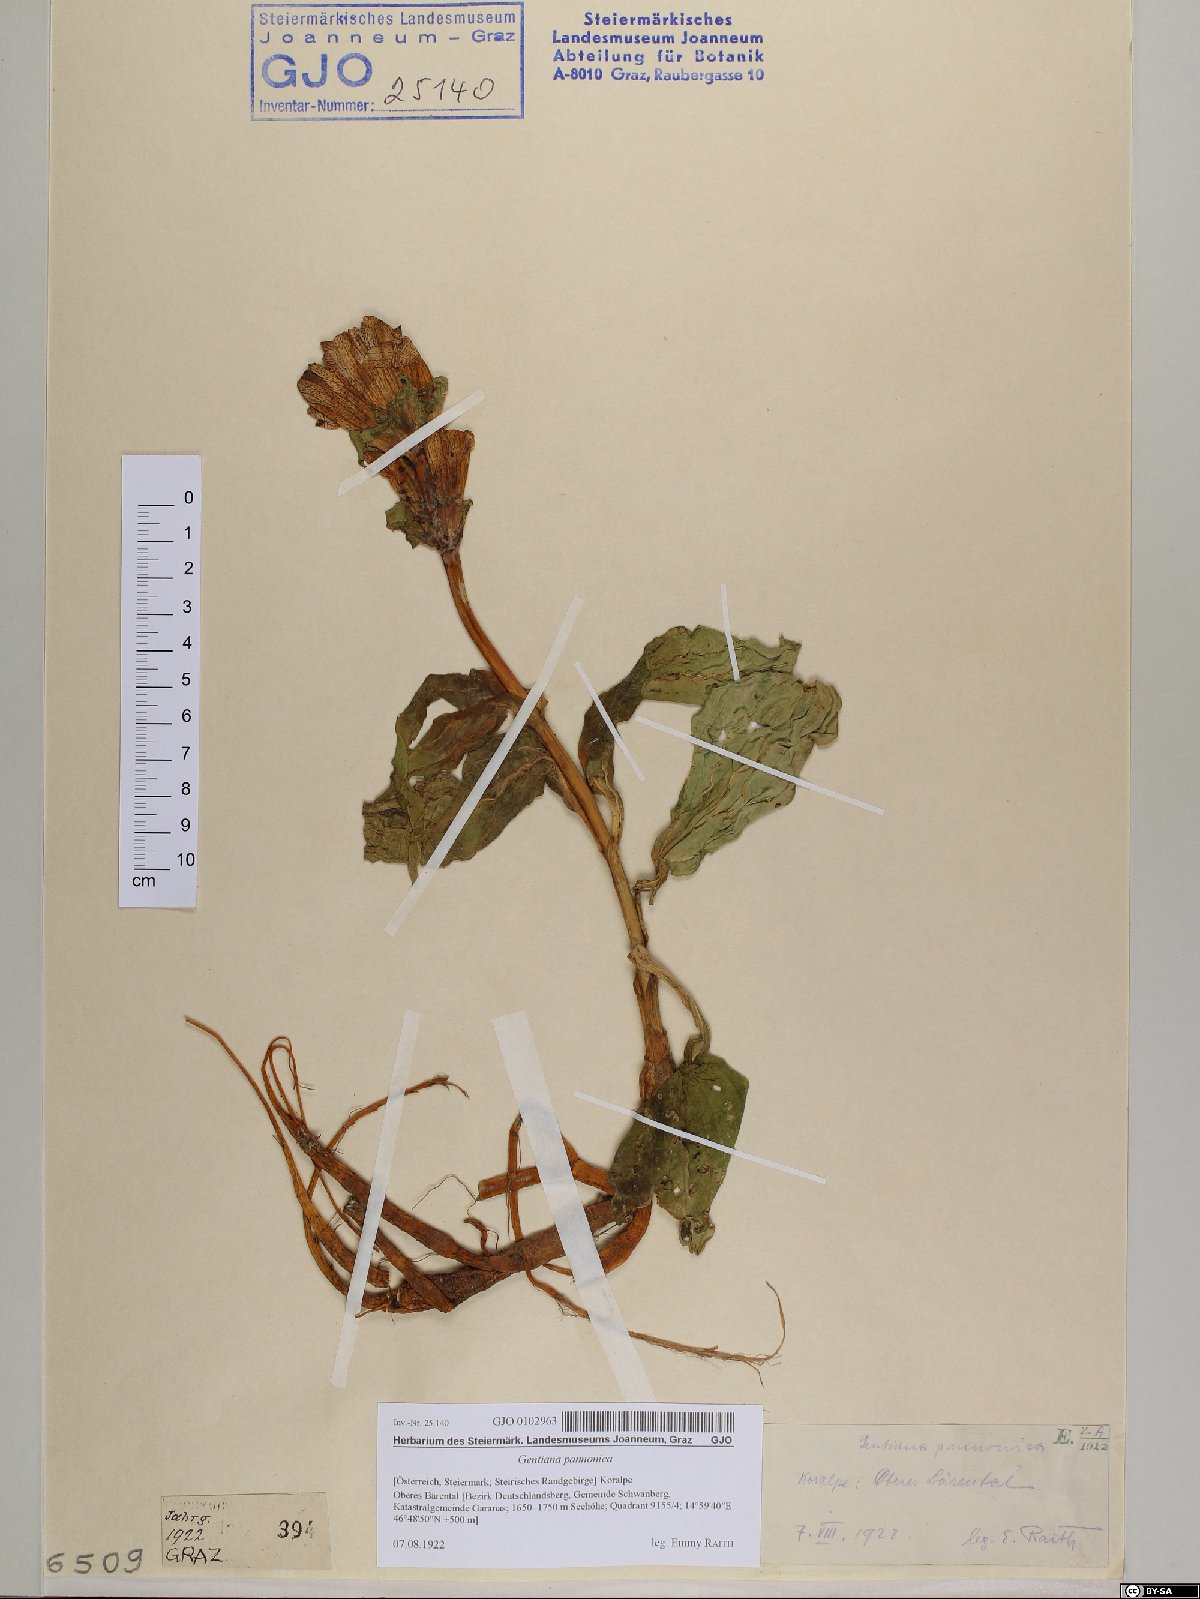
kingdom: Plantae
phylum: Tracheophyta
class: Magnoliopsida
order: Gentianales
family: Gentianaceae
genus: Gentiana
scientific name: Gentiana pannonica
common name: Hungarian gentian
